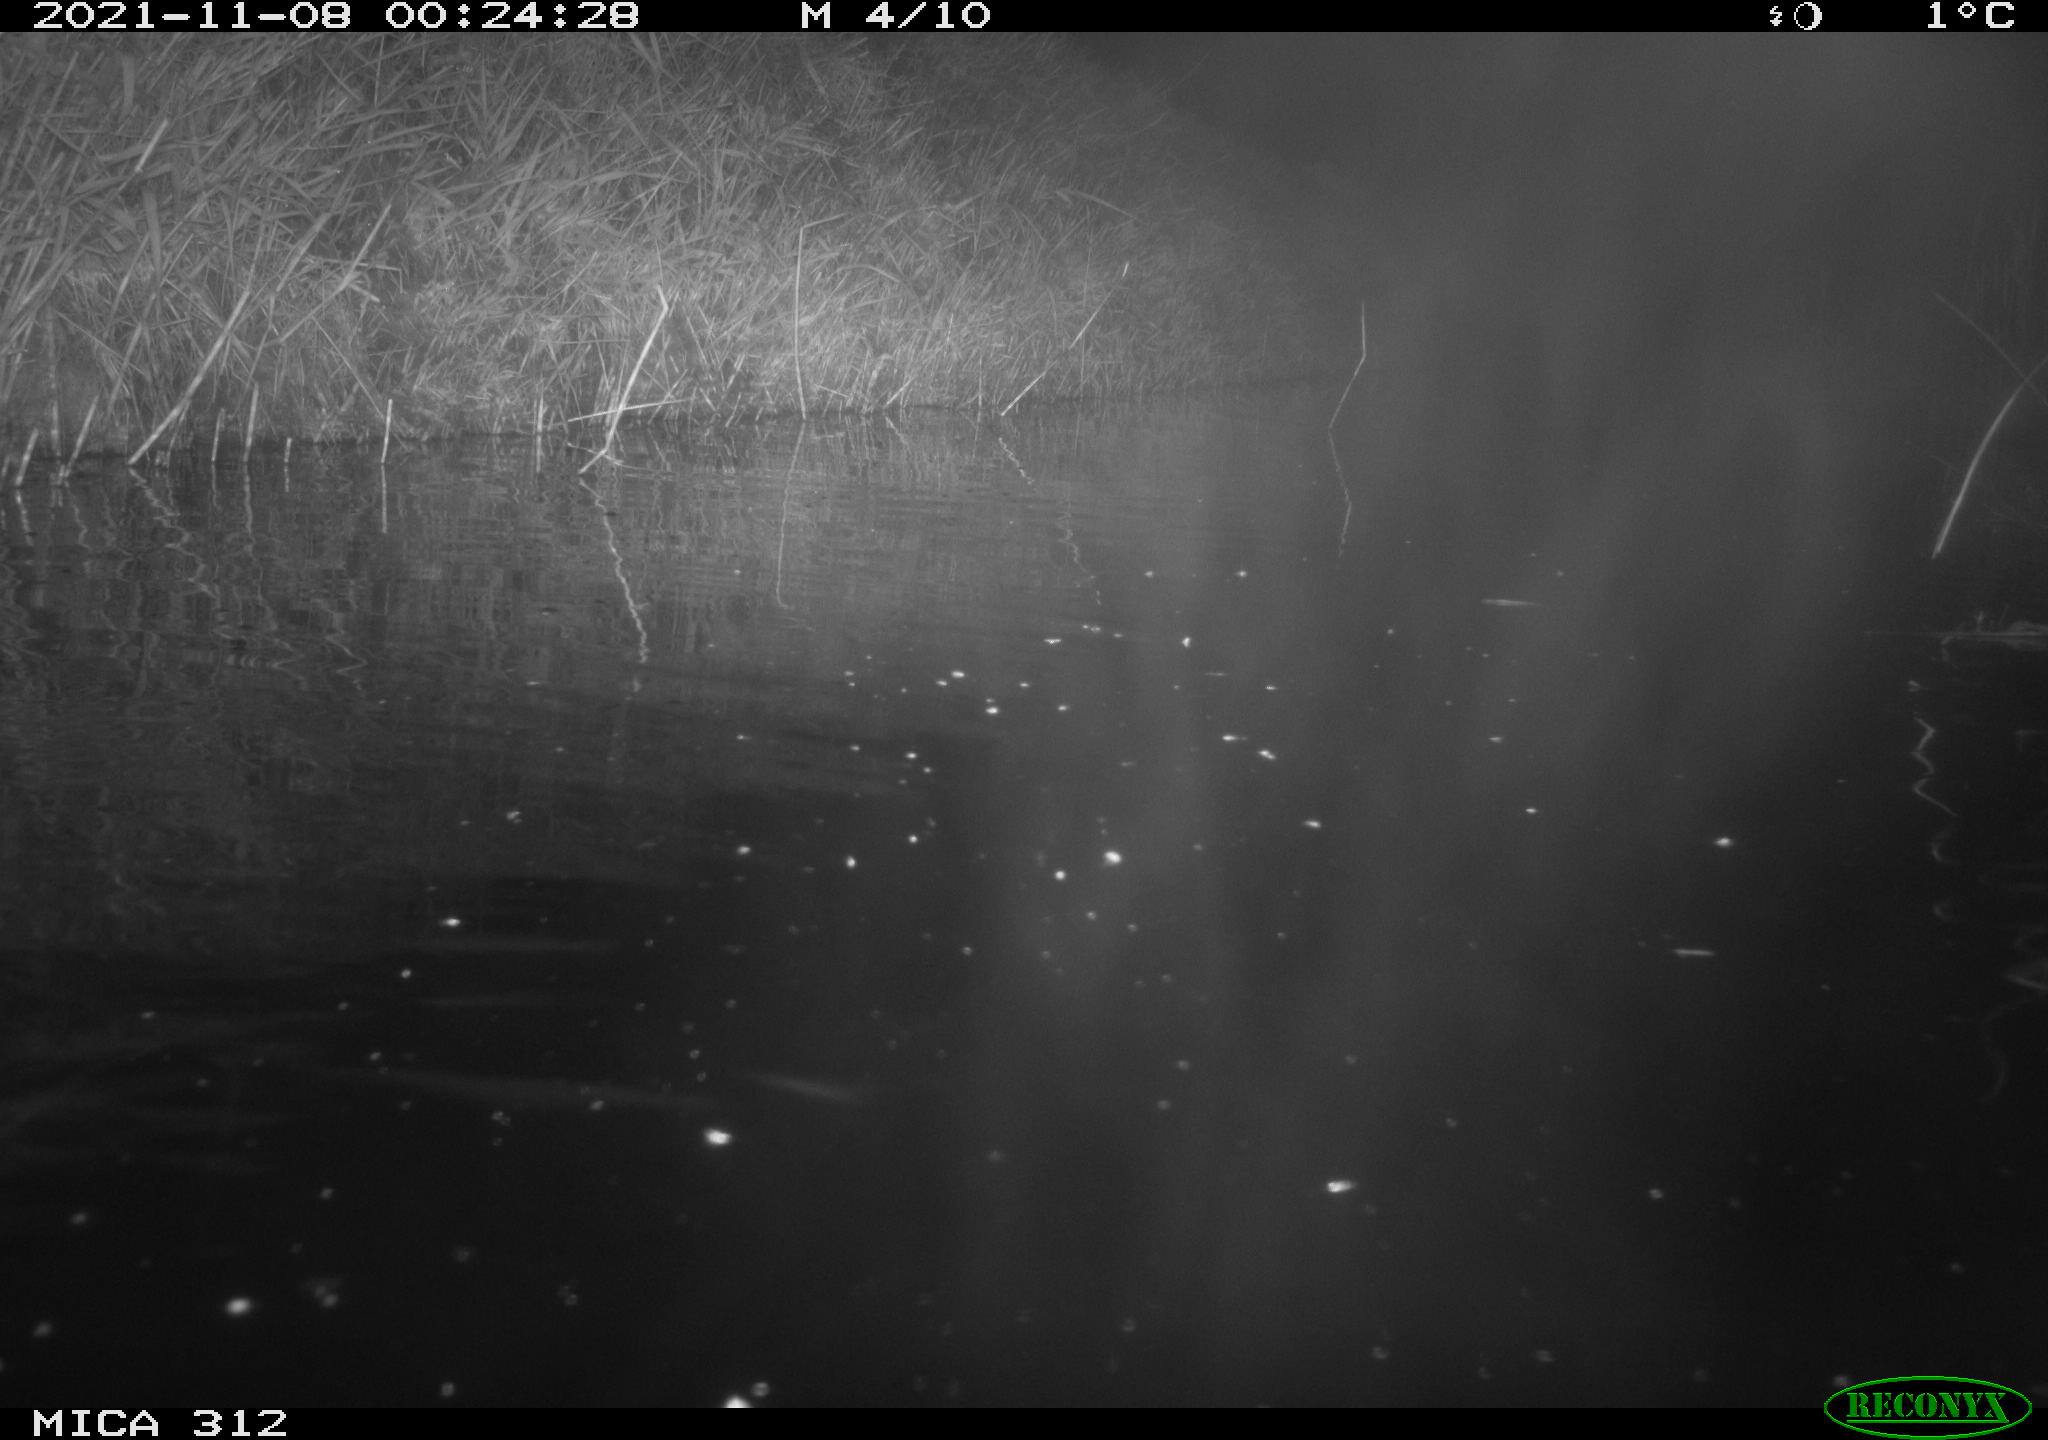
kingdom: Animalia
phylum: Chordata
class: Mammalia
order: Rodentia
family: Muridae
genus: Rattus
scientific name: Rattus norvegicus
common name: Brown rat
